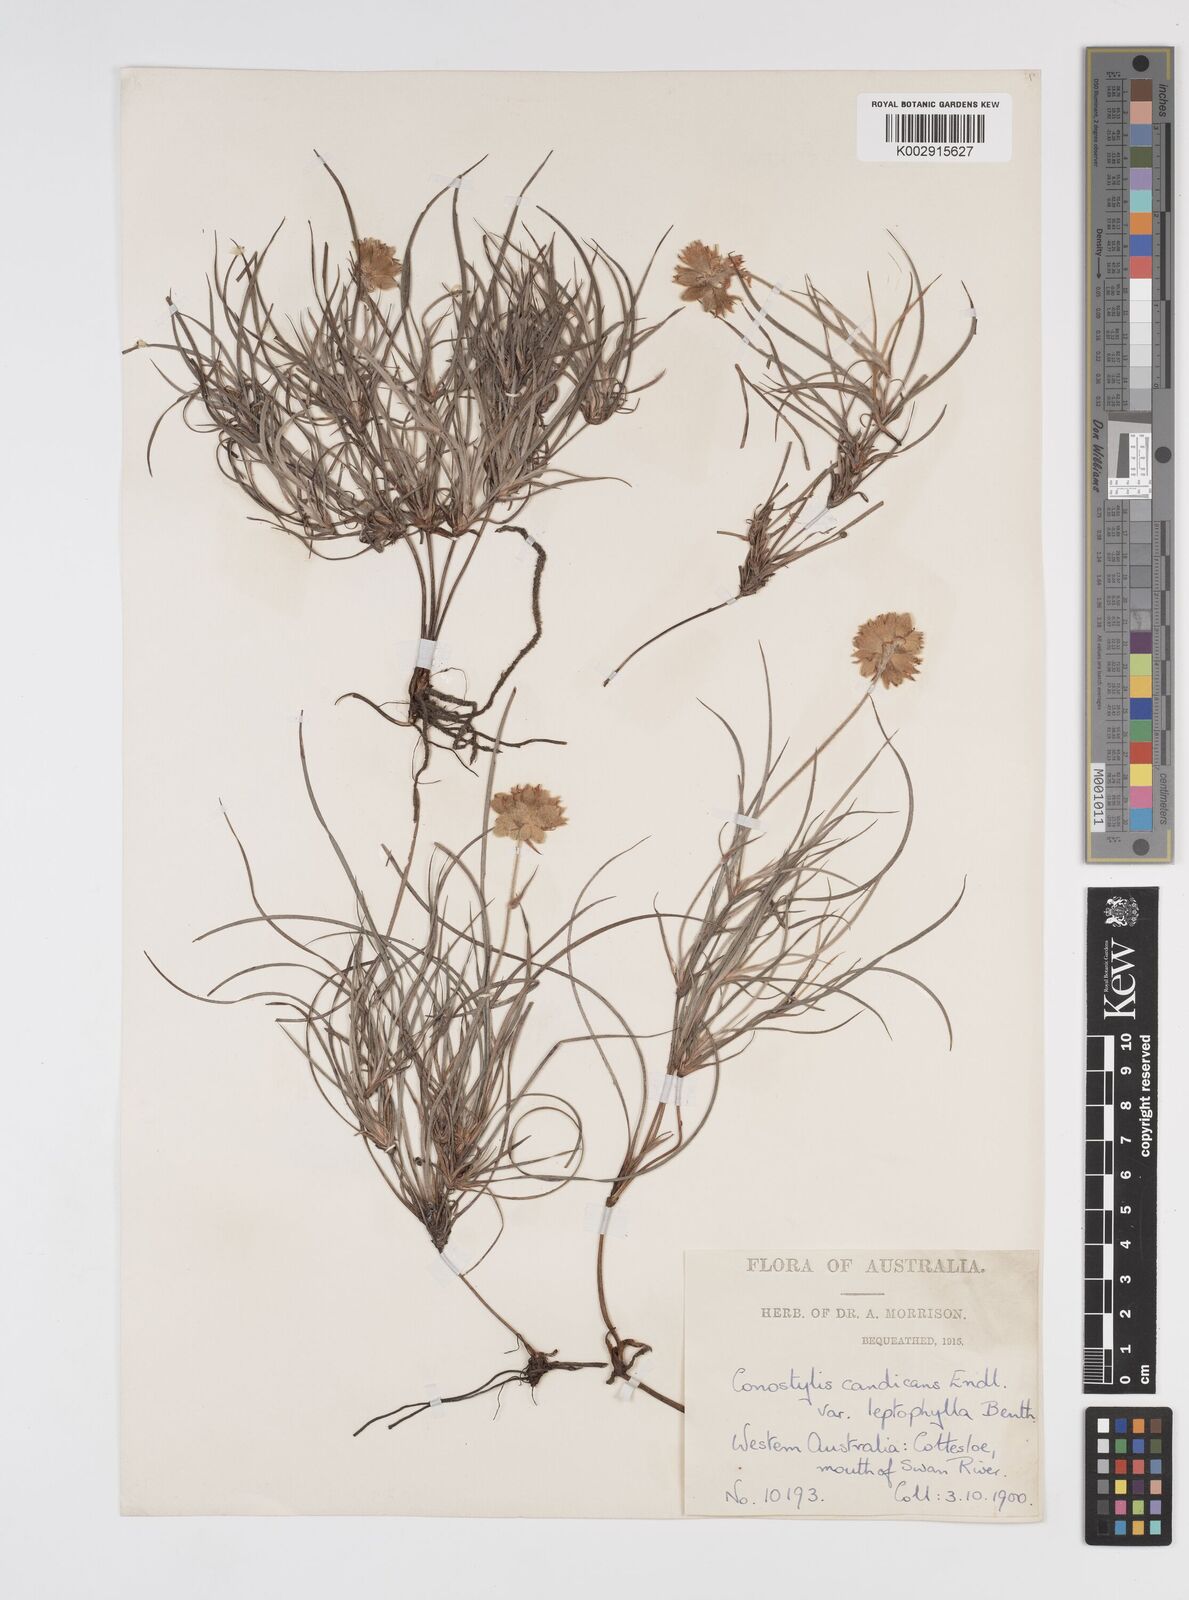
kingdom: Plantae
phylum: Tracheophyta
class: Liliopsida
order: Commelinales
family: Haemodoraceae
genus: Conostylis
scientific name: Conostylis candicans
